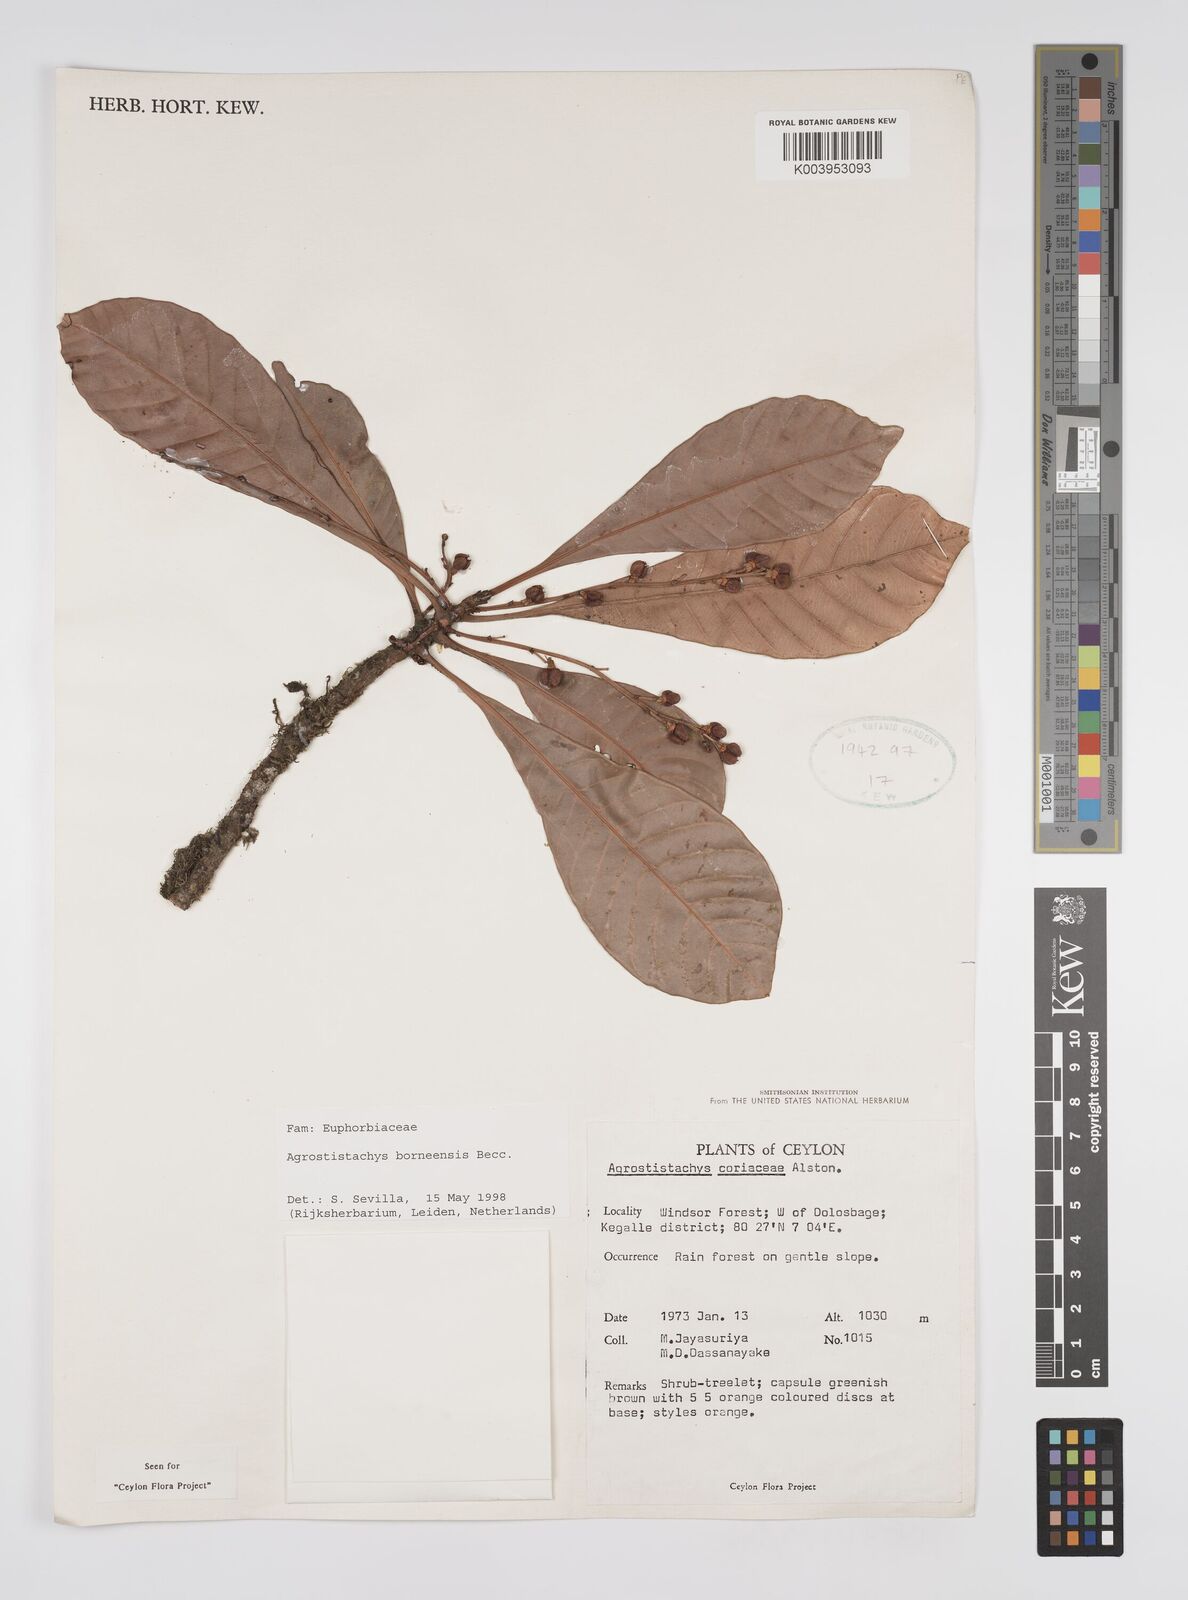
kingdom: Plantae
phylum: Tracheophyta
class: Magnoliopsida
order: Malpighiales
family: Euphorbiaceae
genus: Agrostistachys
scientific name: Agrostistachys borneensis
